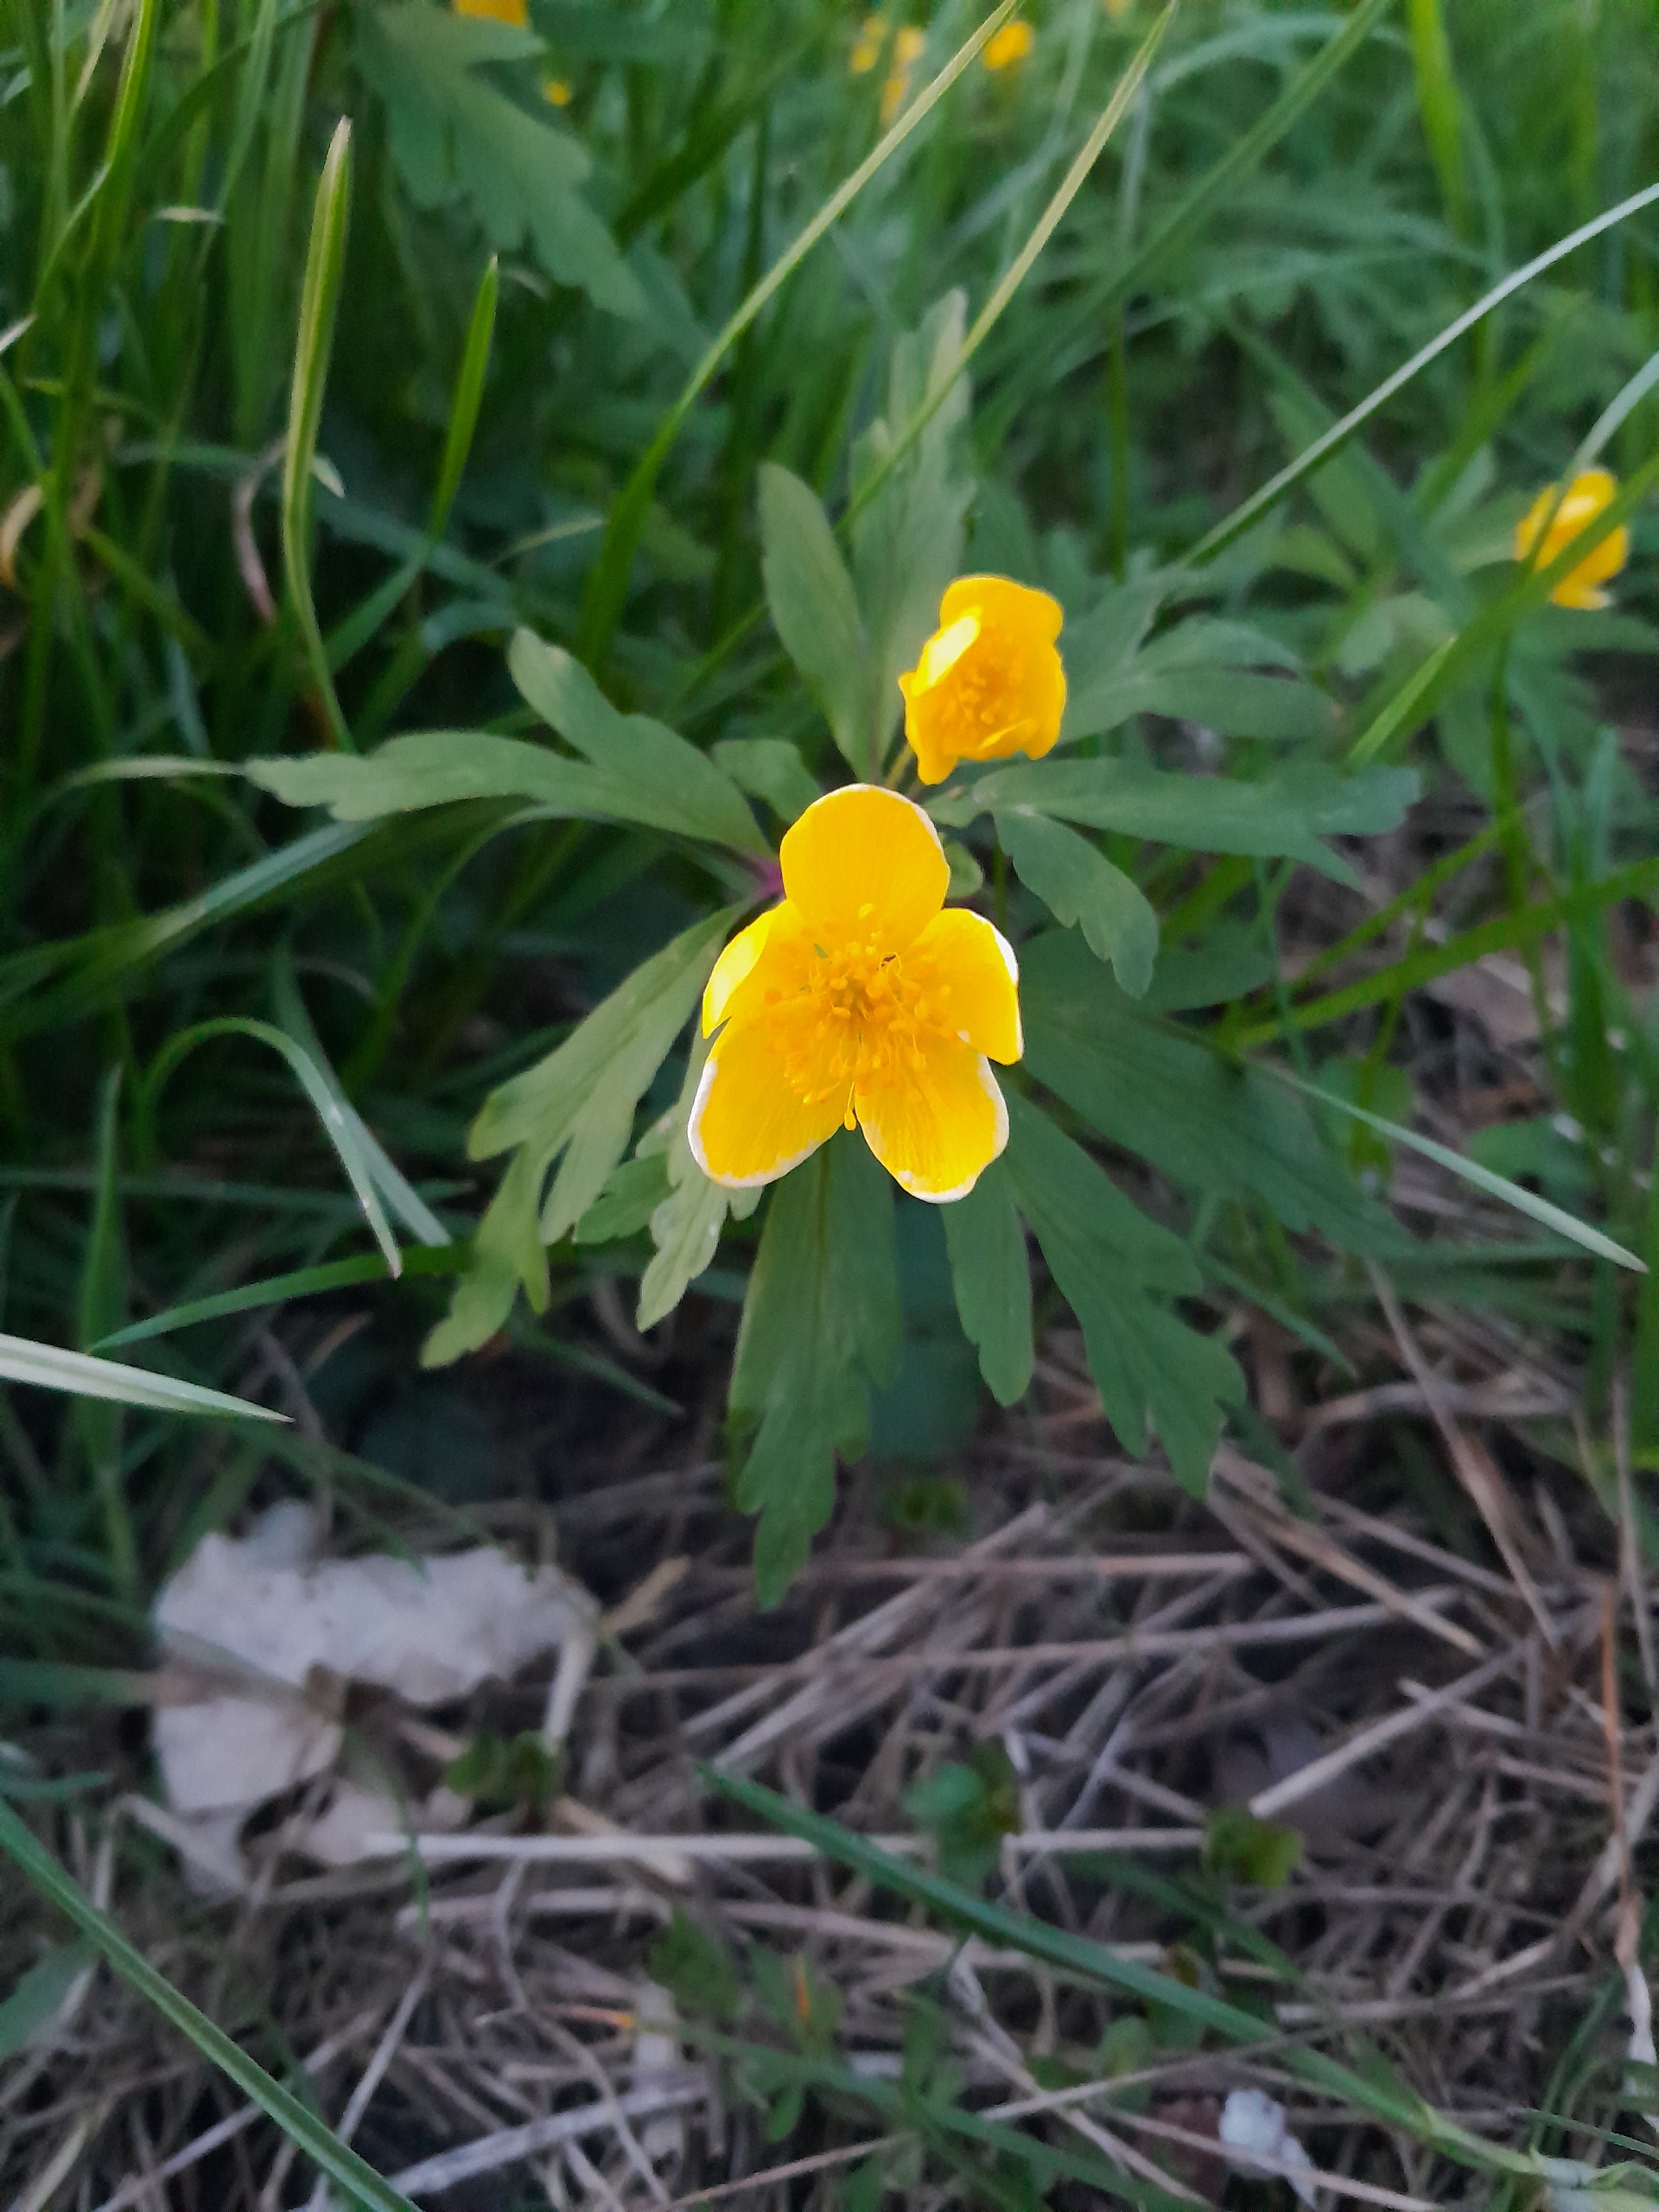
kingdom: Plantae
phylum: Tracheophyta
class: Magnoliopsida
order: Ranunculales
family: Ranunculaceae
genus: Anemone
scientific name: Anemone ranunculoides
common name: Gul anemone
